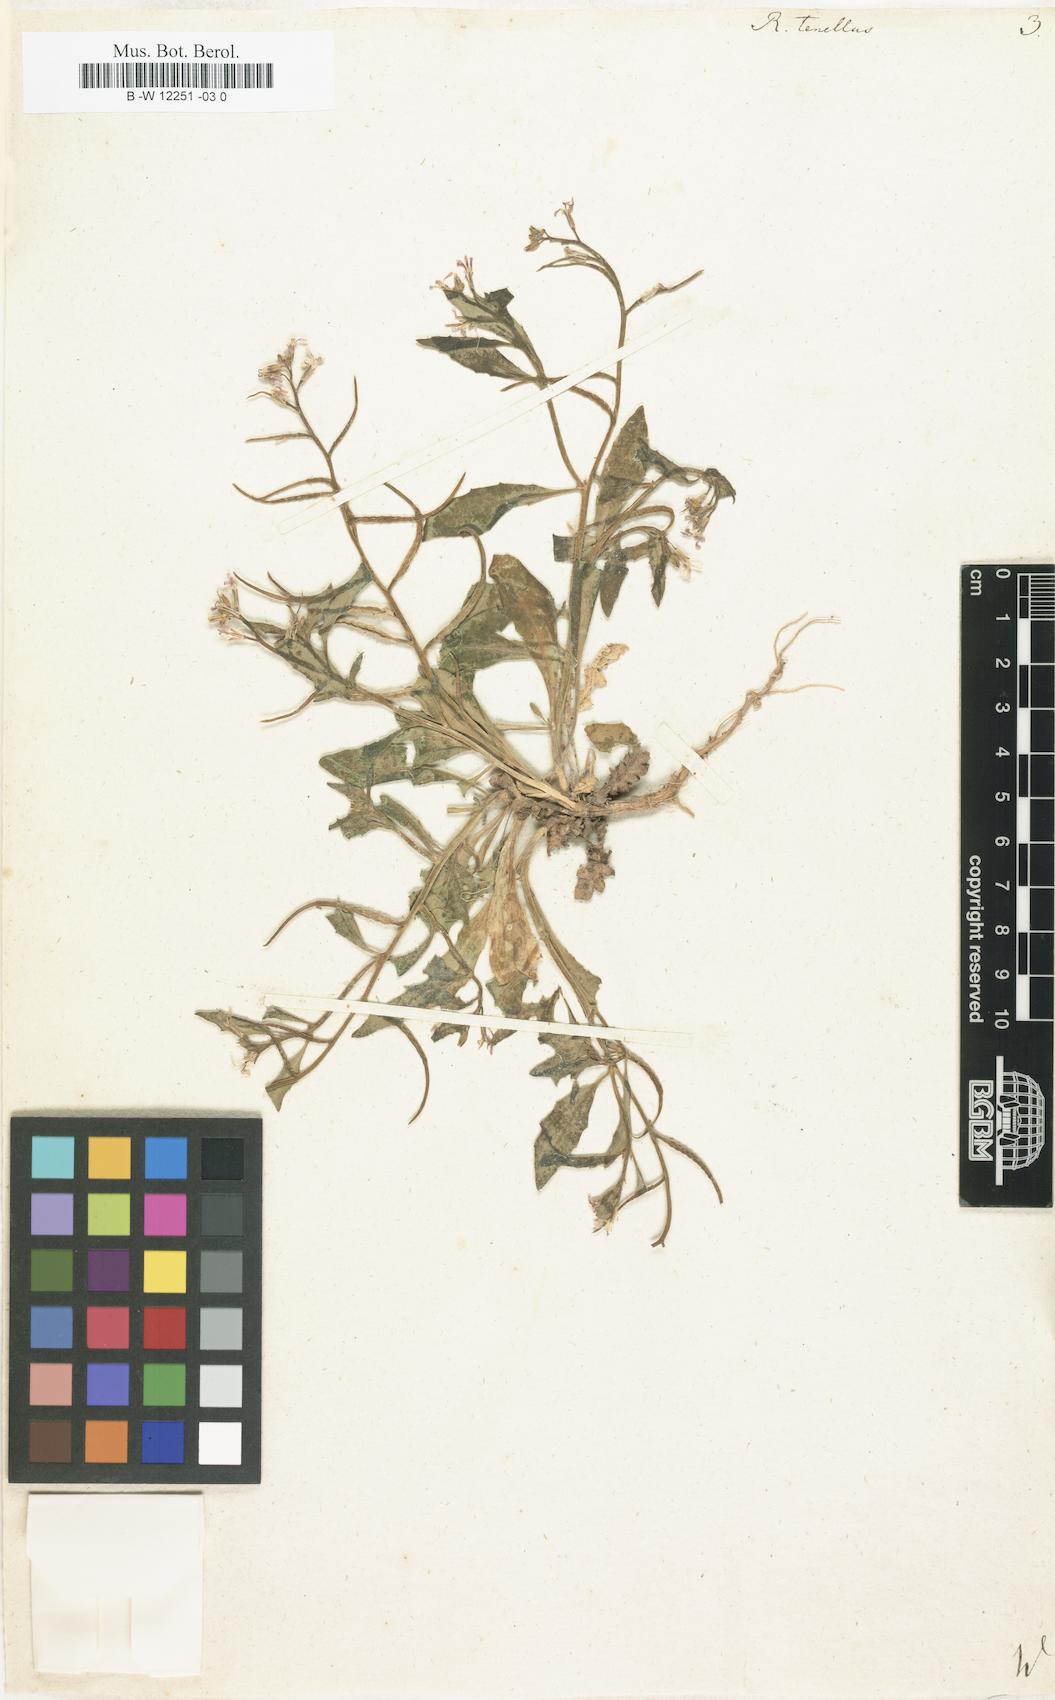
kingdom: Plantae
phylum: Tracheophyta
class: Magnoliopsida
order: Brassicales
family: Brassicaceae
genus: Chorispora
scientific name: Chorispora tenella
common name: Crossflower
